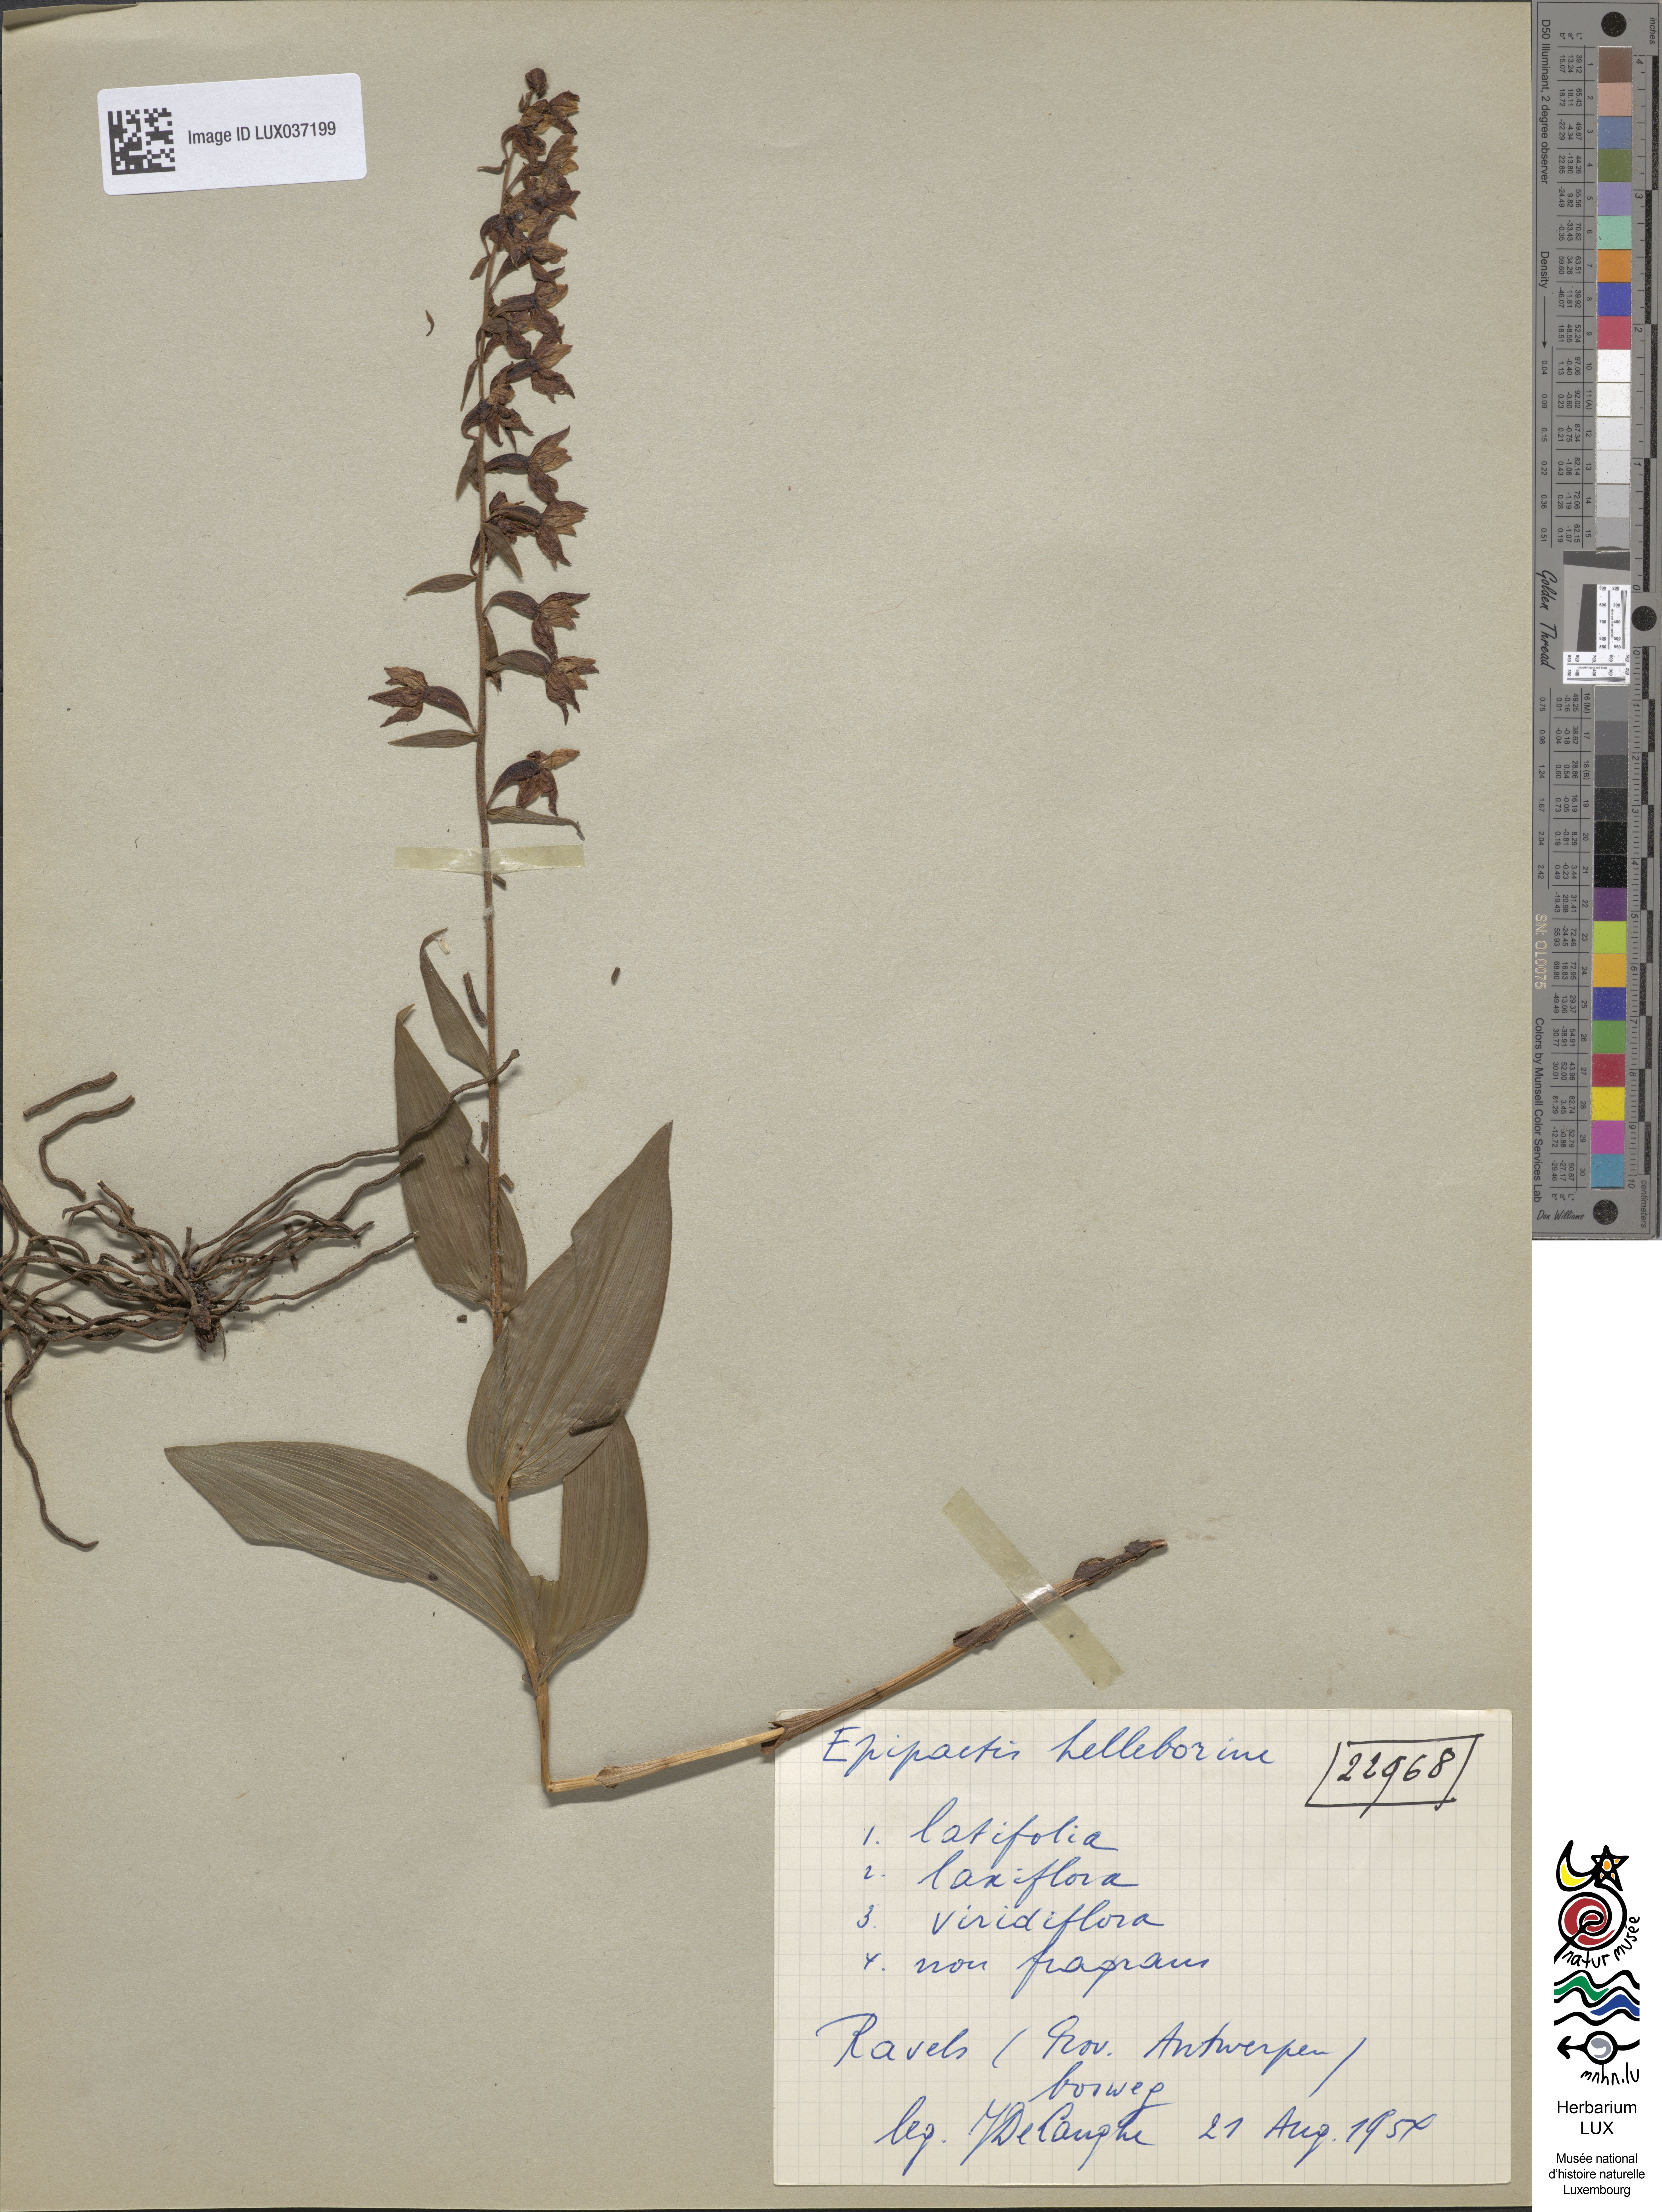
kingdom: Plantae
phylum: Tracheophyta
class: Liliopsida
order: Asparagales
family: Orchidaceae
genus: Epipactis
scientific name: Epipactis helleborine
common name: Broad-leaved helleborine
